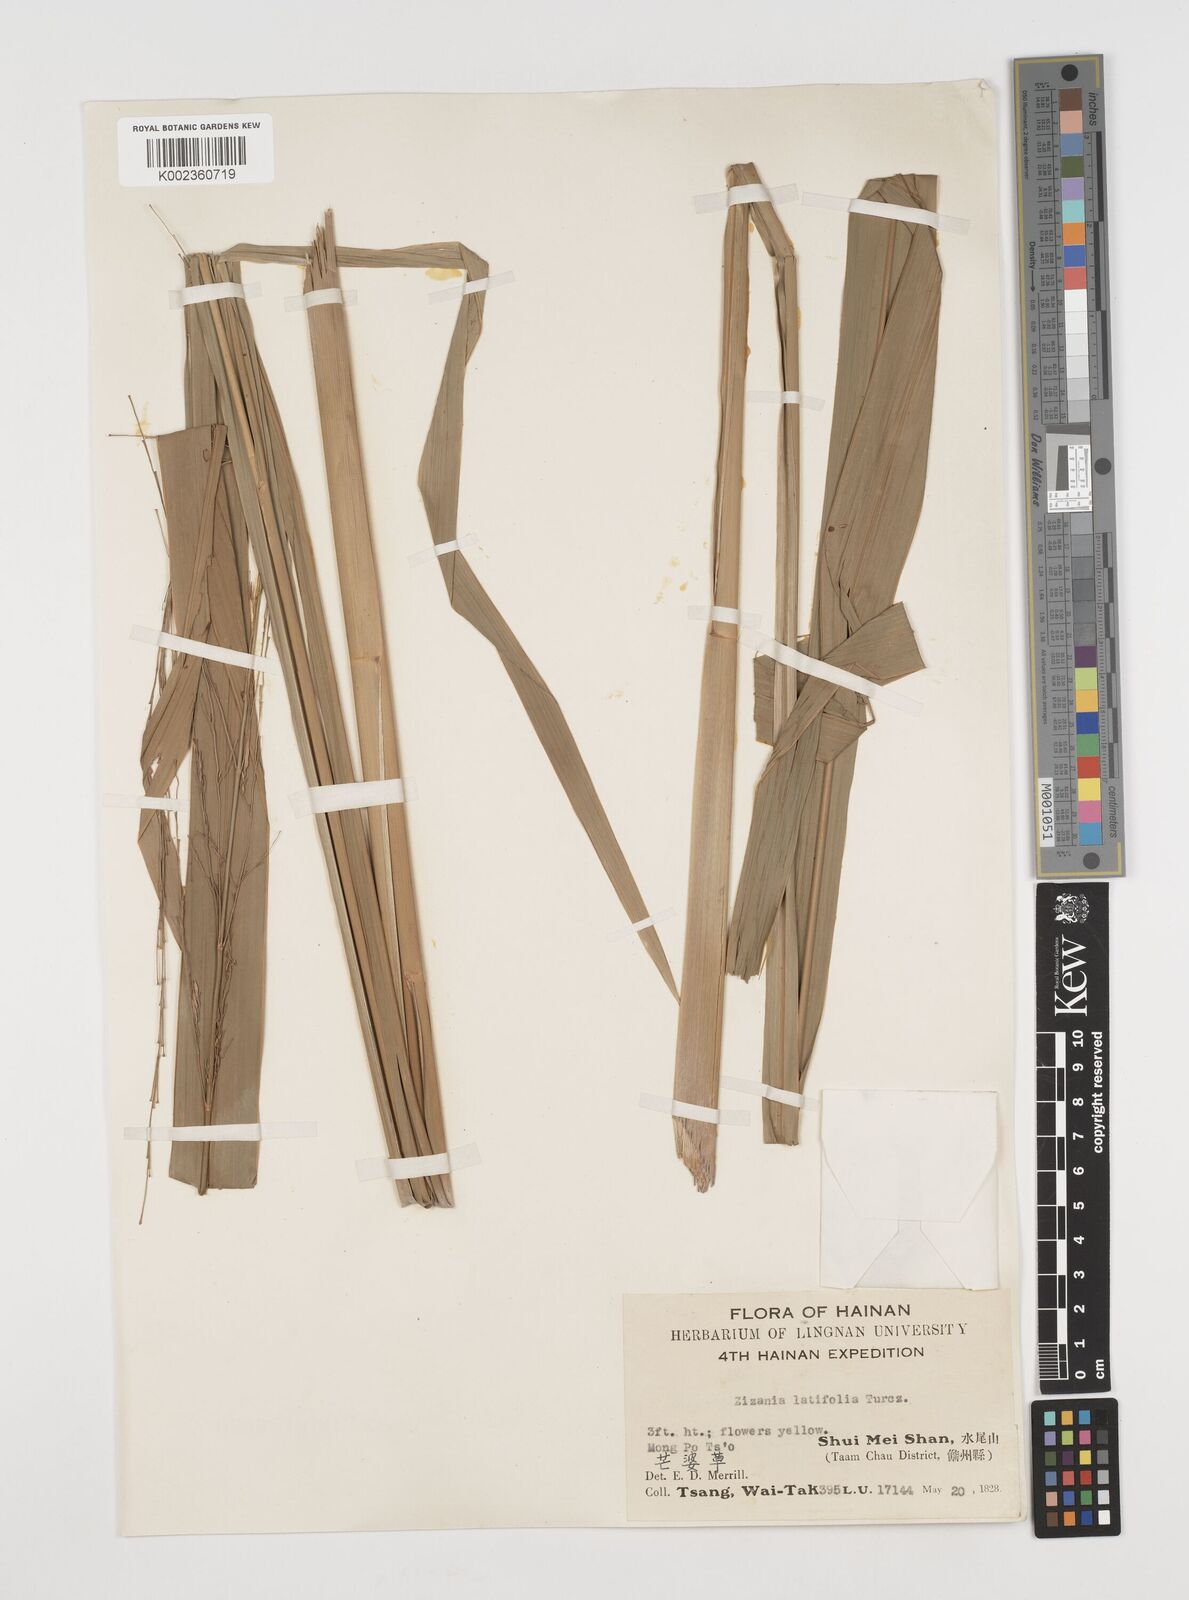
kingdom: Plantae
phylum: Tracheophyta
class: Liliopsida
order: Poales
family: Poaceae
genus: Zizania
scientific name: Zizania latifolia
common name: Manchurian wildrice
